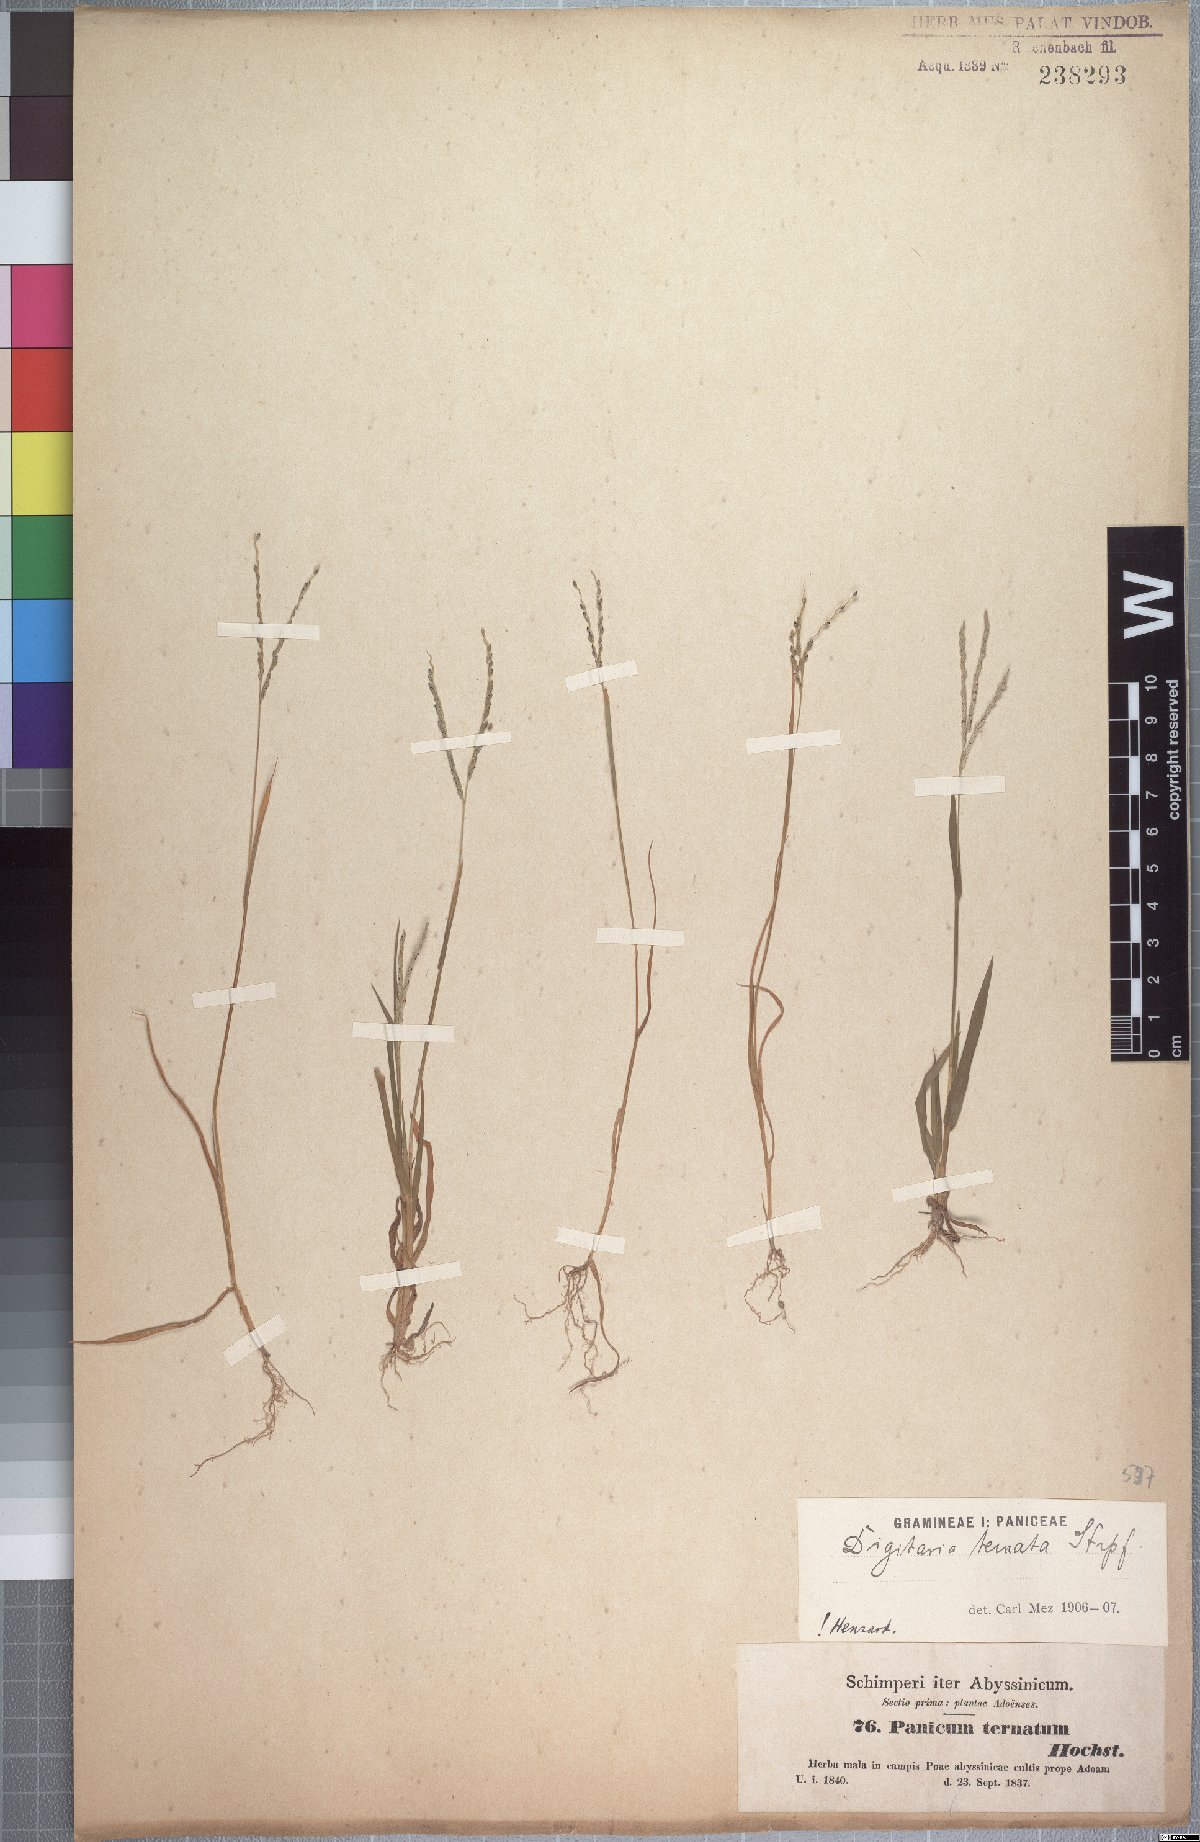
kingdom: Plantae
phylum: Tracheophyta
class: Liliopsida
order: Poales
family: Poaceae
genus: Digitaria
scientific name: Digitaria ternata
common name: Blackseed crabgrass
